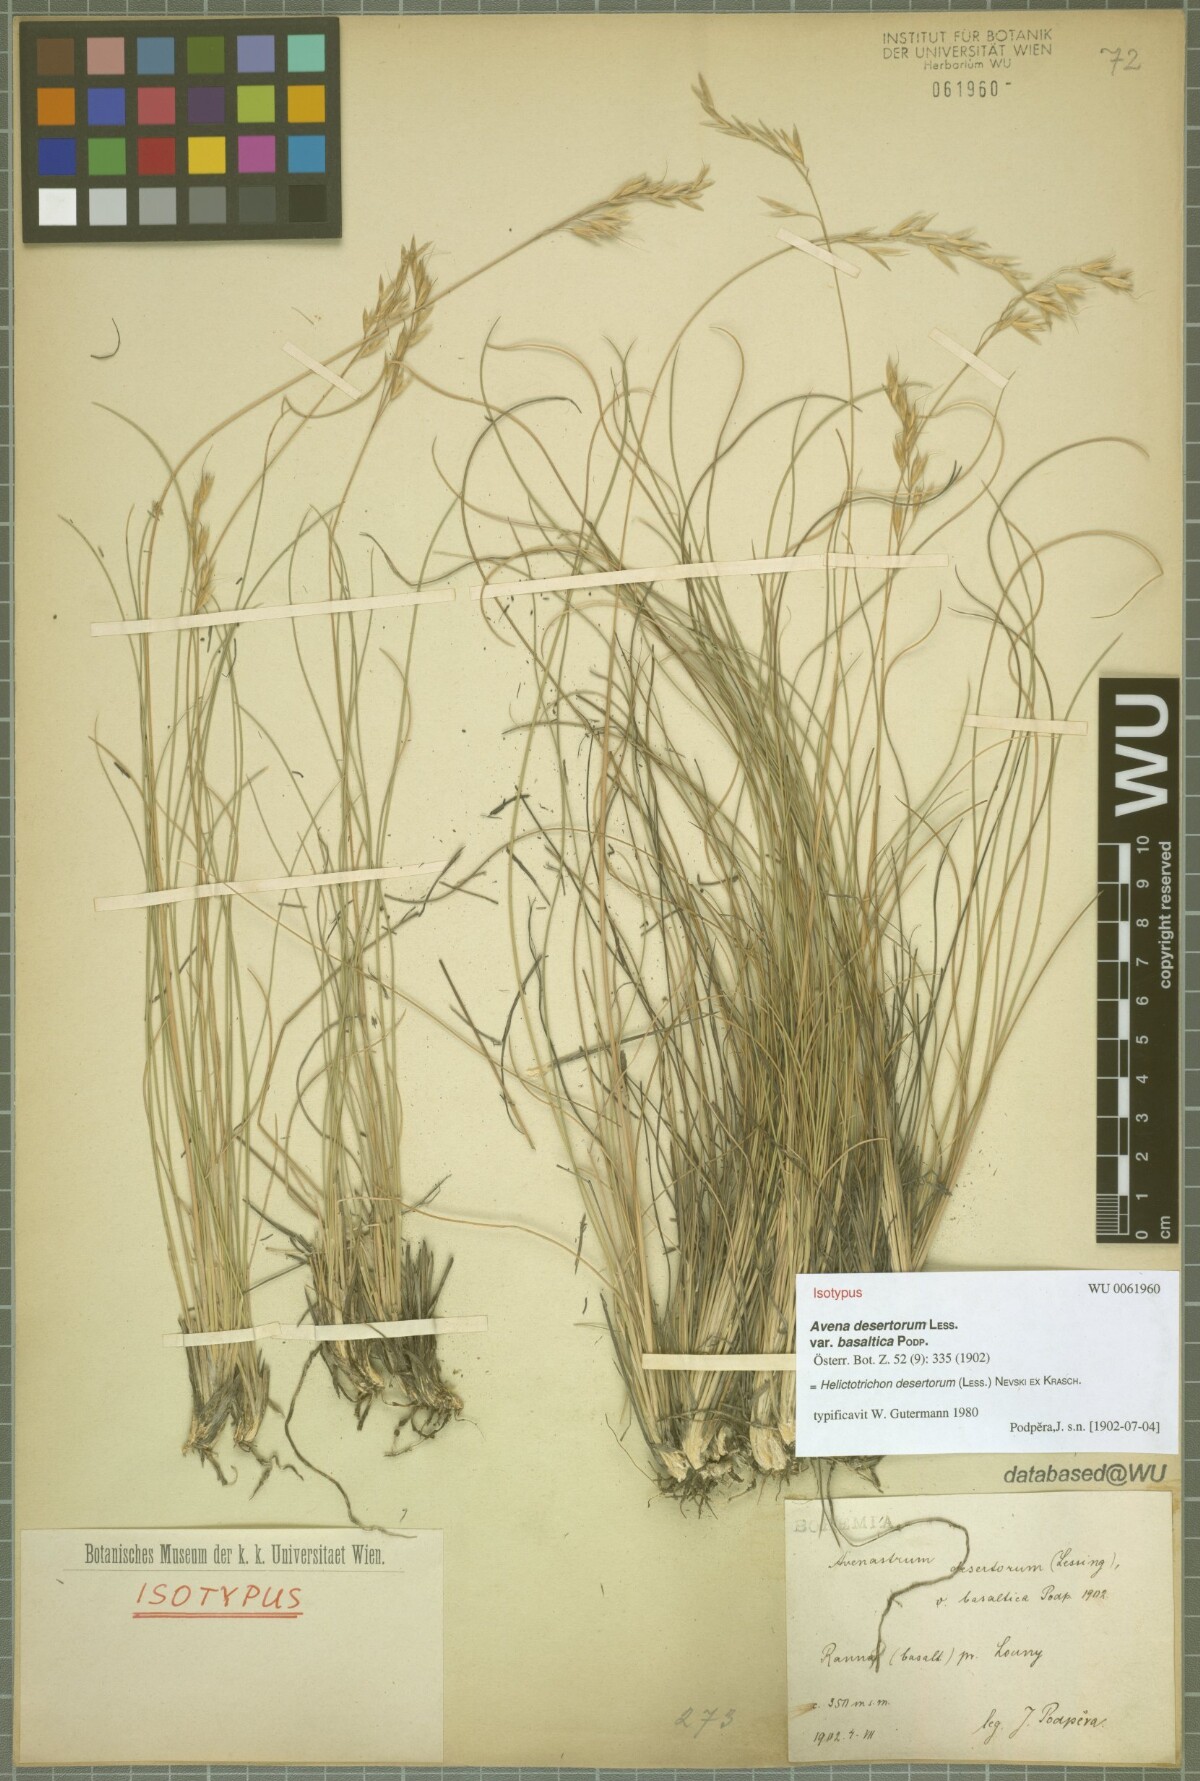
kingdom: Plantae
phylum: Tracheophyta
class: Liliopsida
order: Poales
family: Poaceae
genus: Helictotrichon
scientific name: Helictotrichon desertorum
